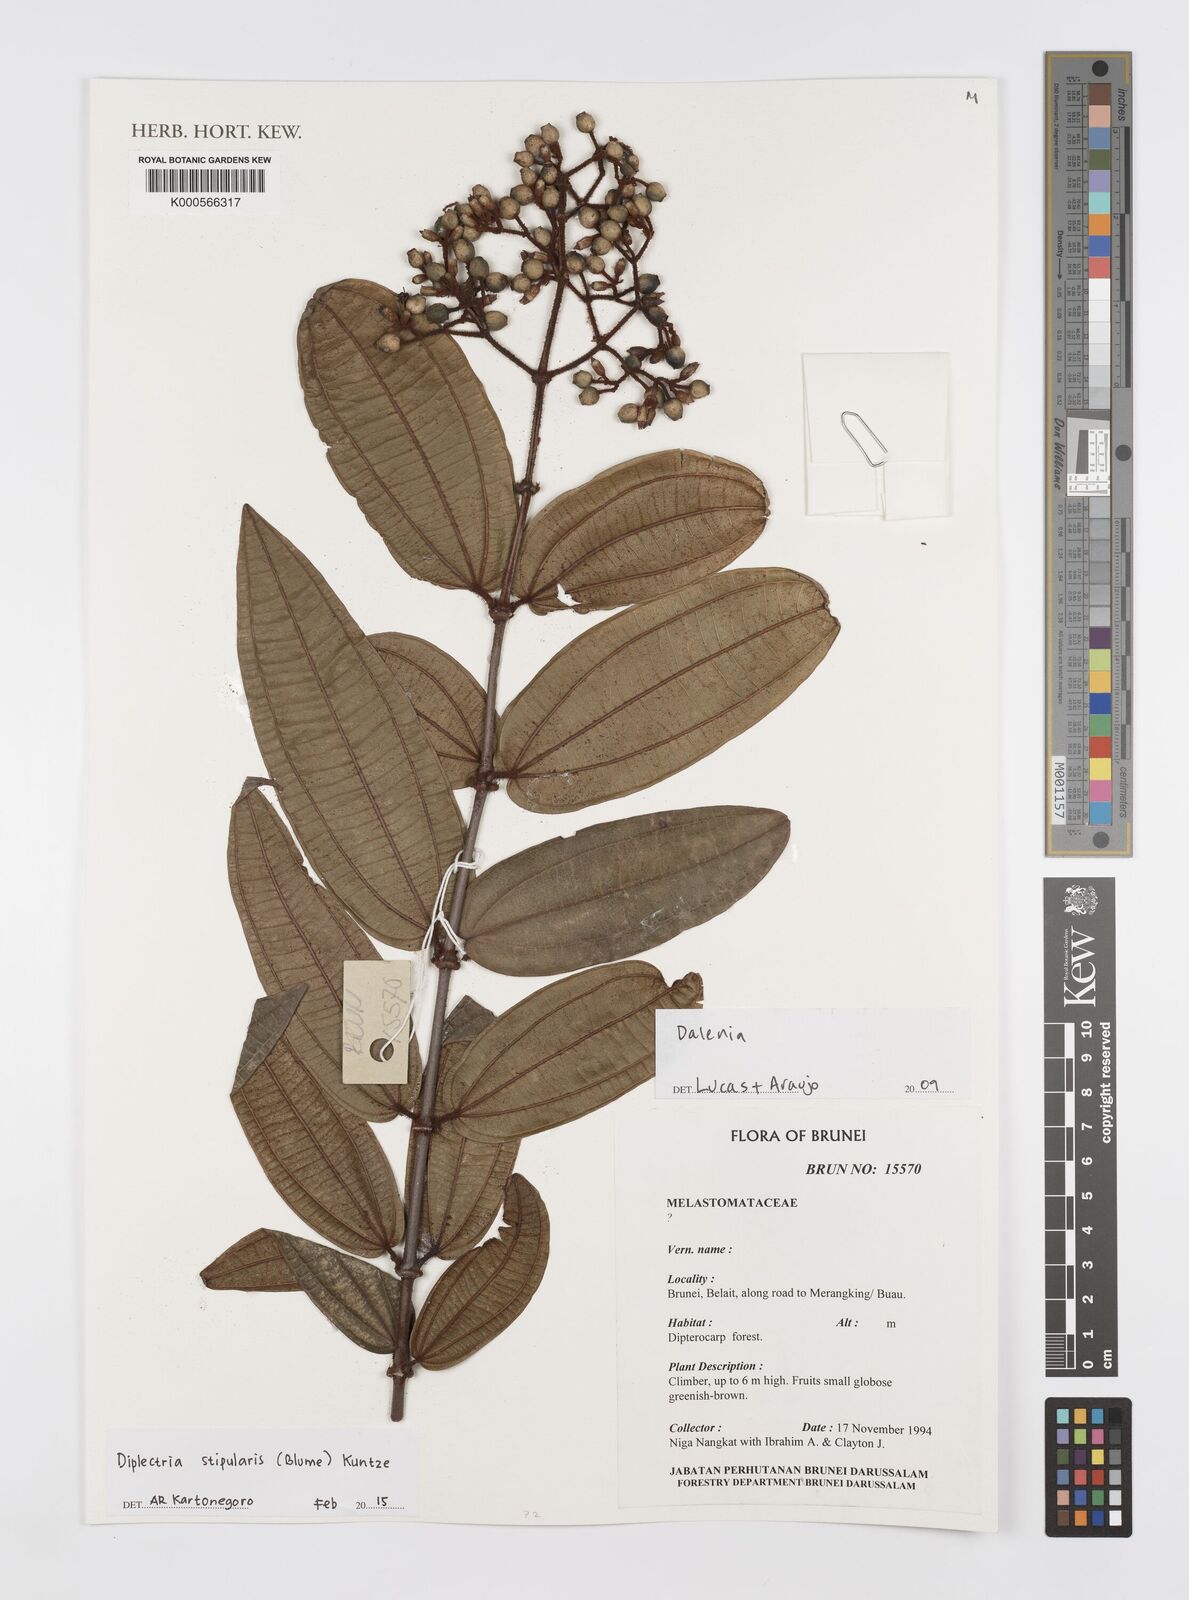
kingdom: Plantae
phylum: Tracheophyta
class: Magnoliopsida
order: Myrtales
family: Melastomataceae
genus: Diplectria
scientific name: Diplectria stipularis
